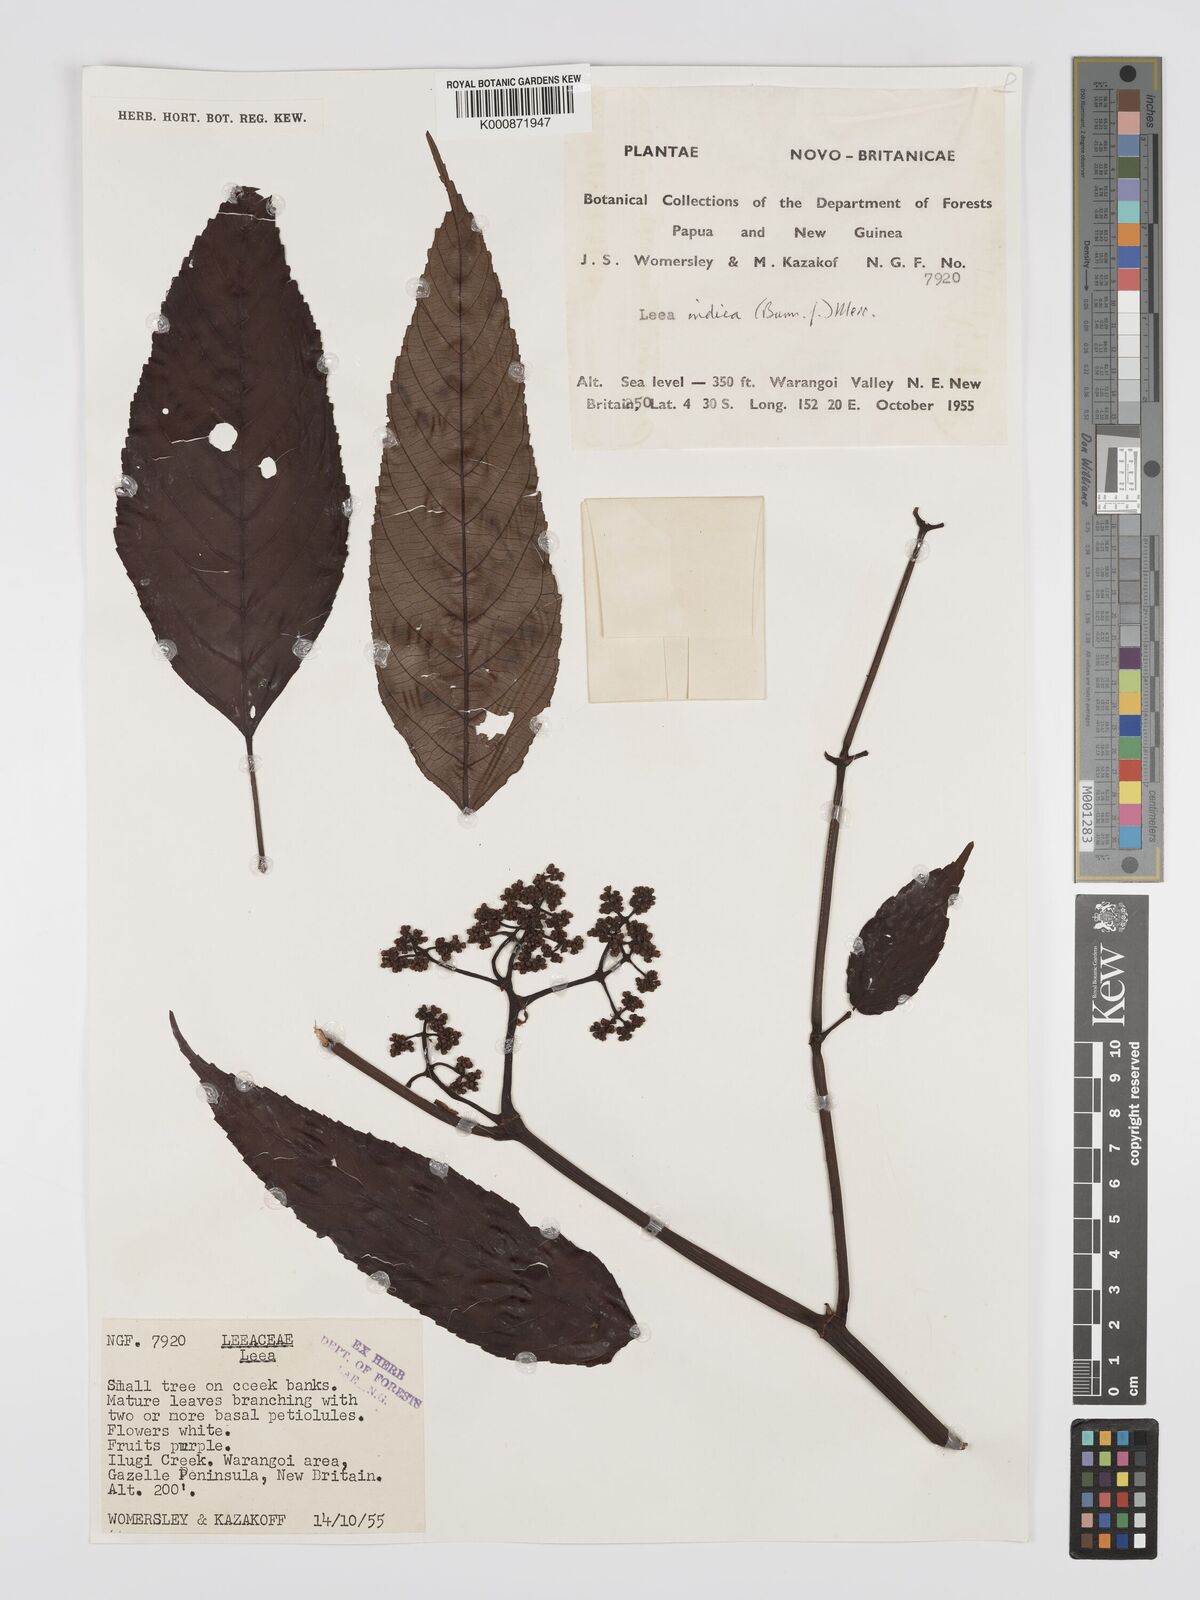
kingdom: Plantae
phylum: Tracheophyta
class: Magnoliopsida
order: Vitales
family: Vitaceae
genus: Leea
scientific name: Leea indica
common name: Bandicoot-berry
